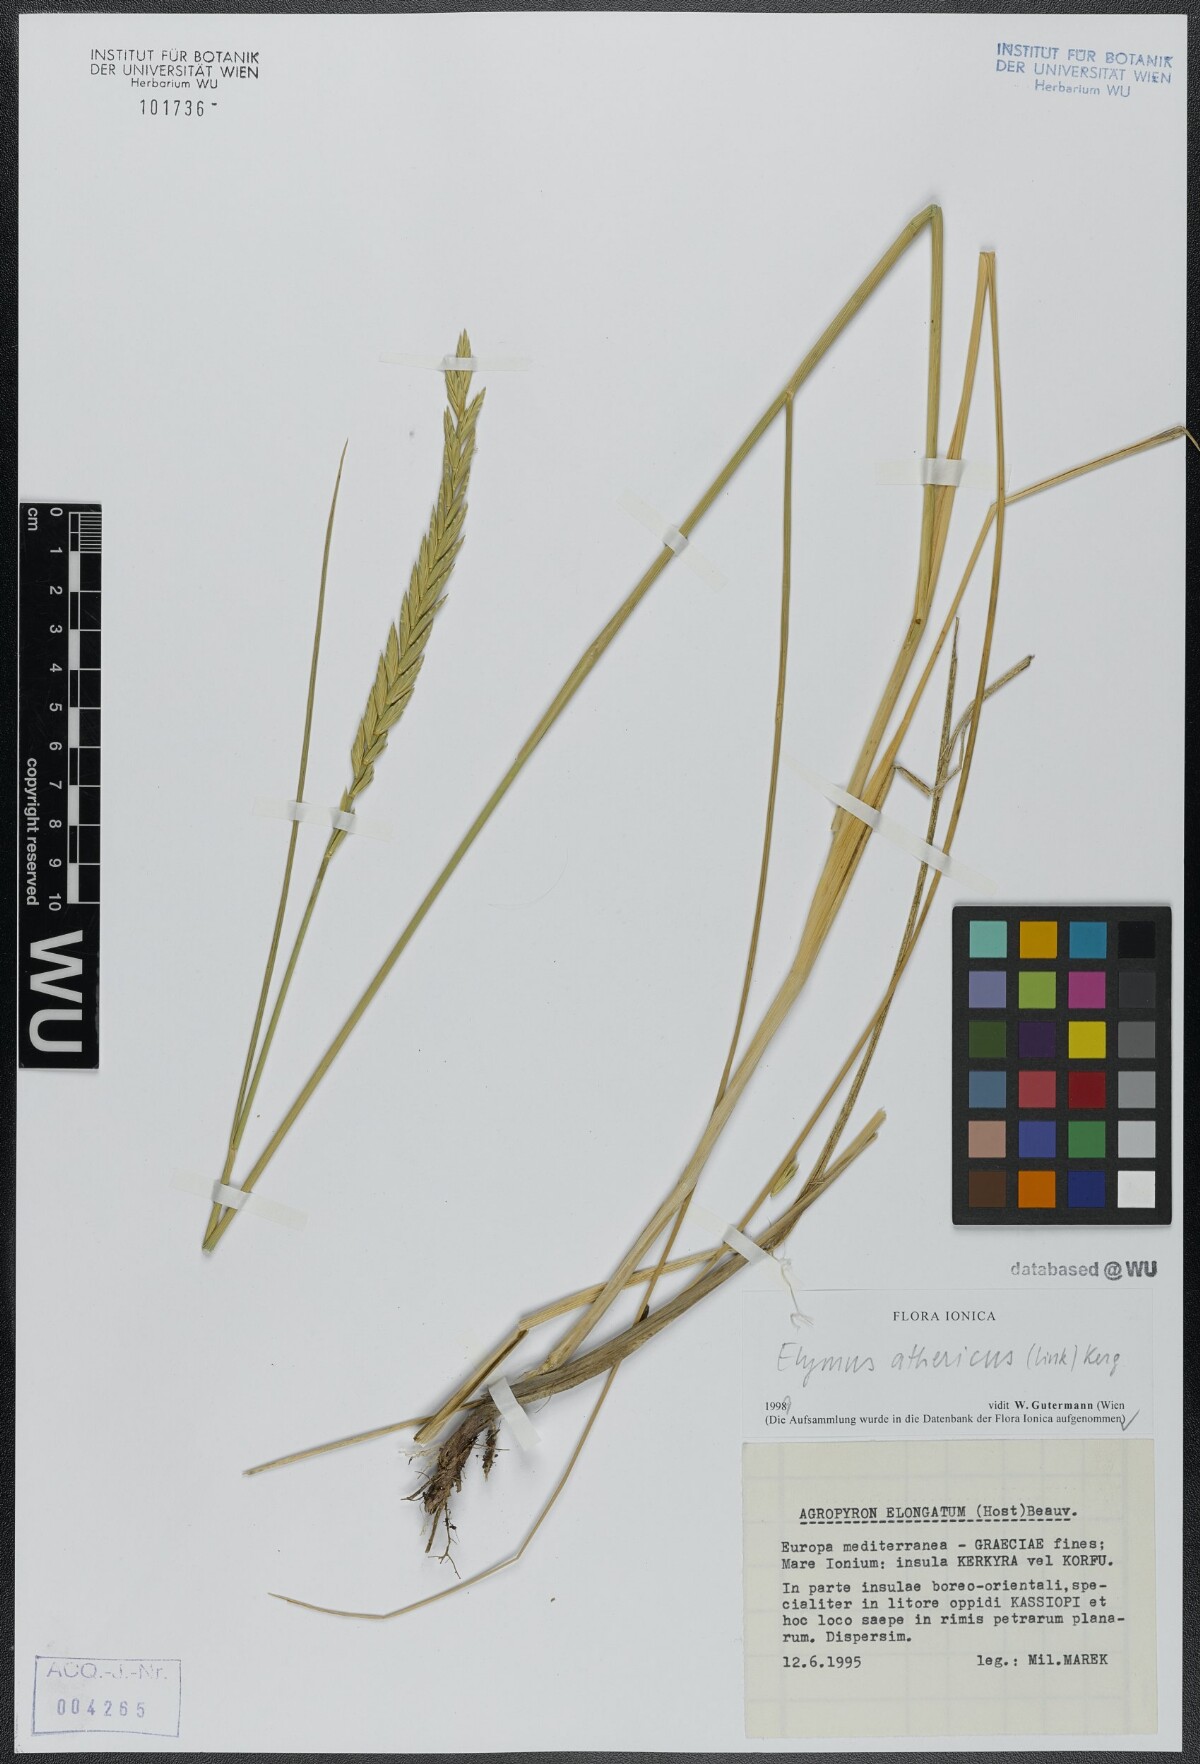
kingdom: Plantae
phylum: Tracheophyta
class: Liliopsida
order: Poales
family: Poaceae
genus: Elymus
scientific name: Elymus athericus
